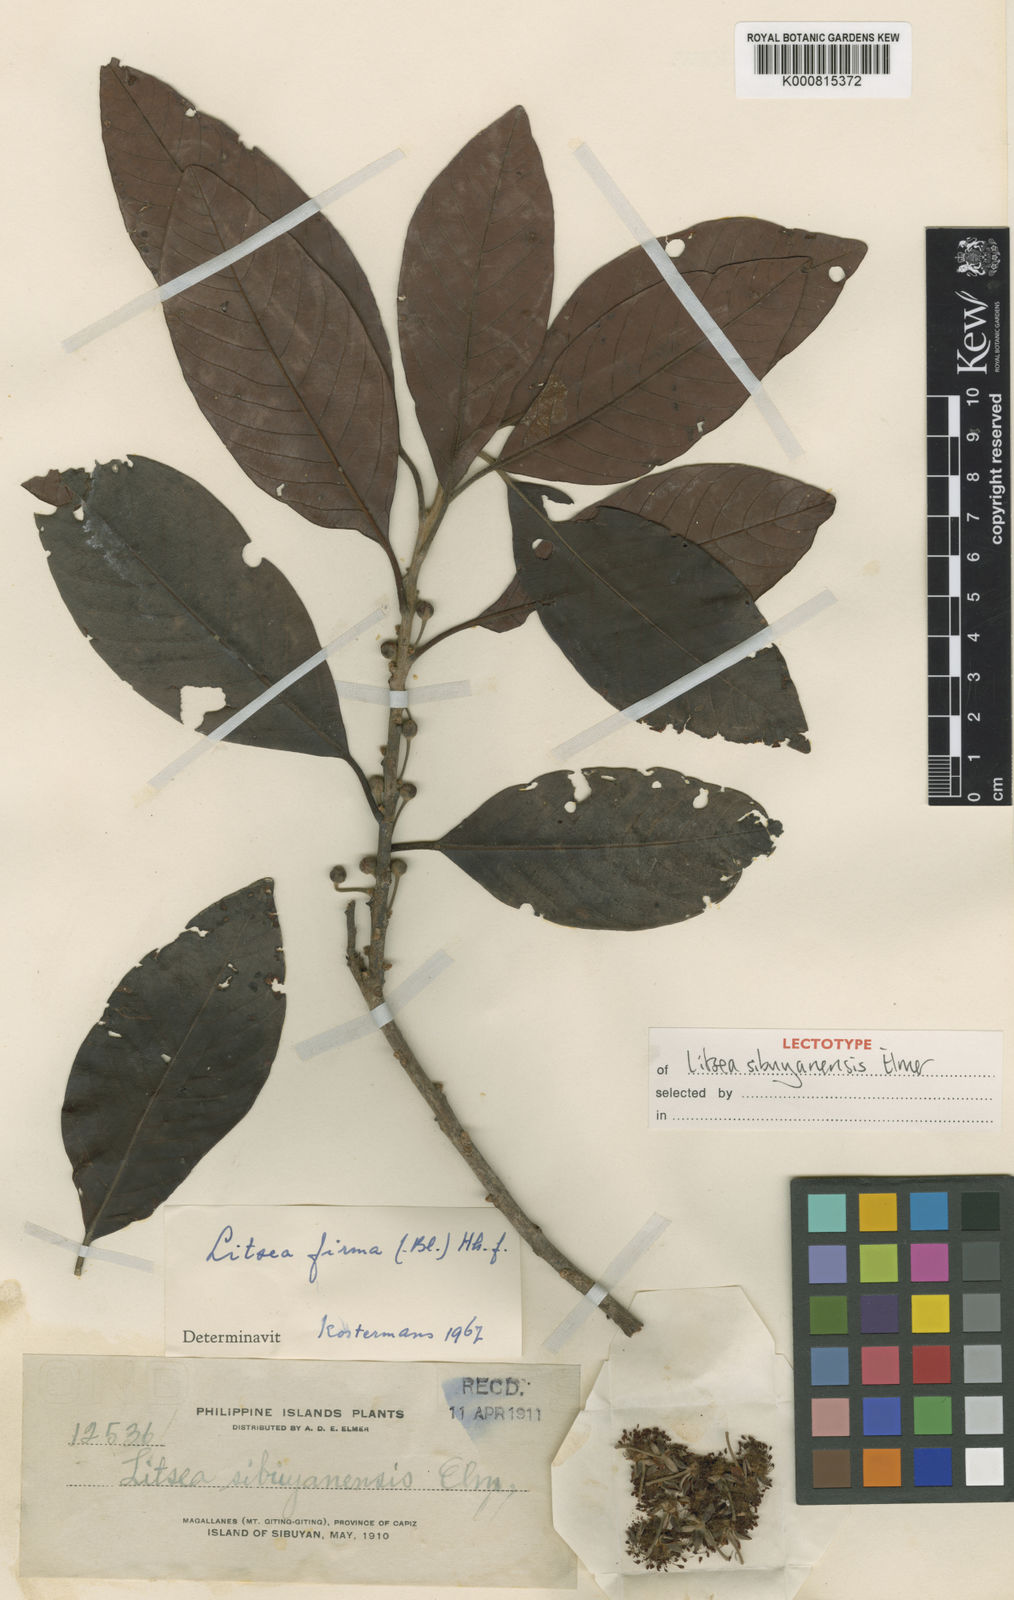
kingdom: Plantae
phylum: Tracheophyta
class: Magnoliopsida
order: Laurales
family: Lauraceae
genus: Litsea
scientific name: Litsea firma
